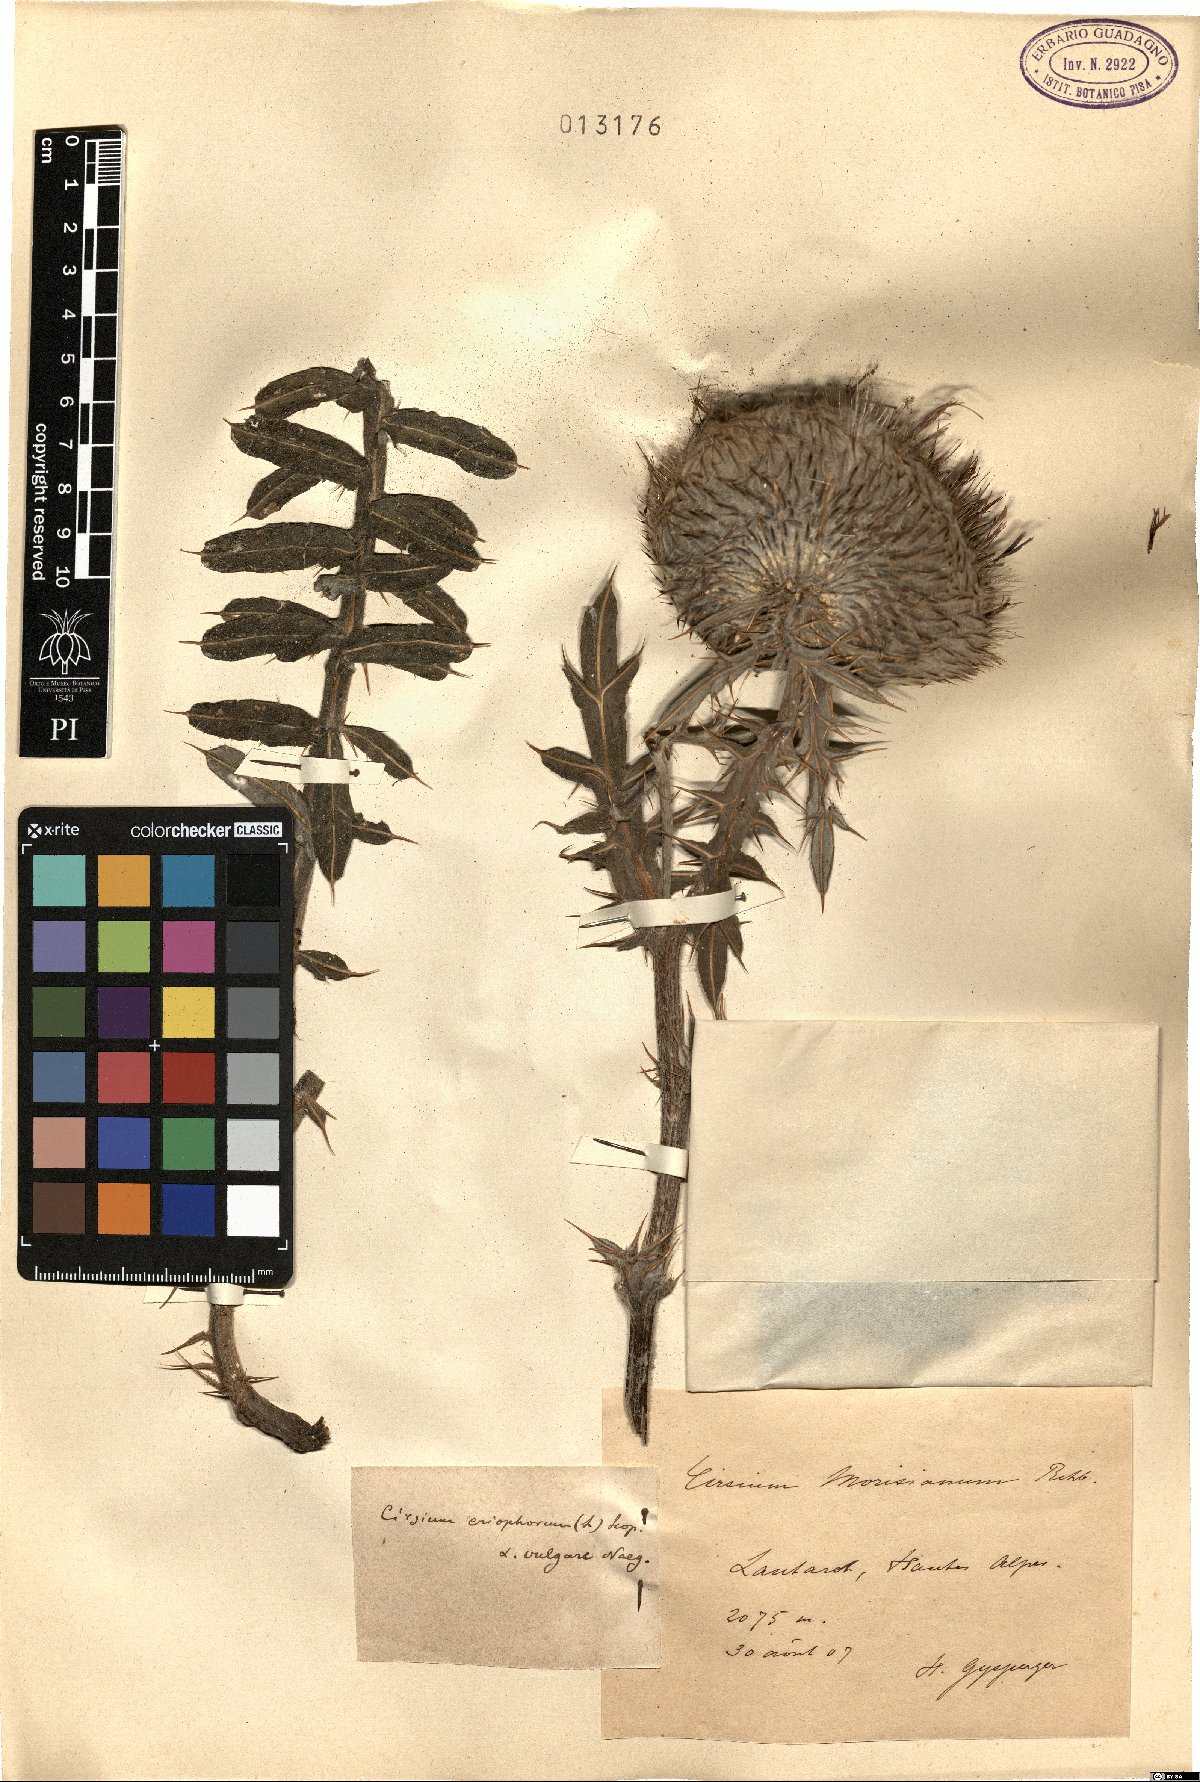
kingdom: Plantae
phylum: Tracheophyta
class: Magnoliopsida
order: Asterales
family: Asteraceae
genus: Lophiolepis
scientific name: Lophiolepis morisiana
